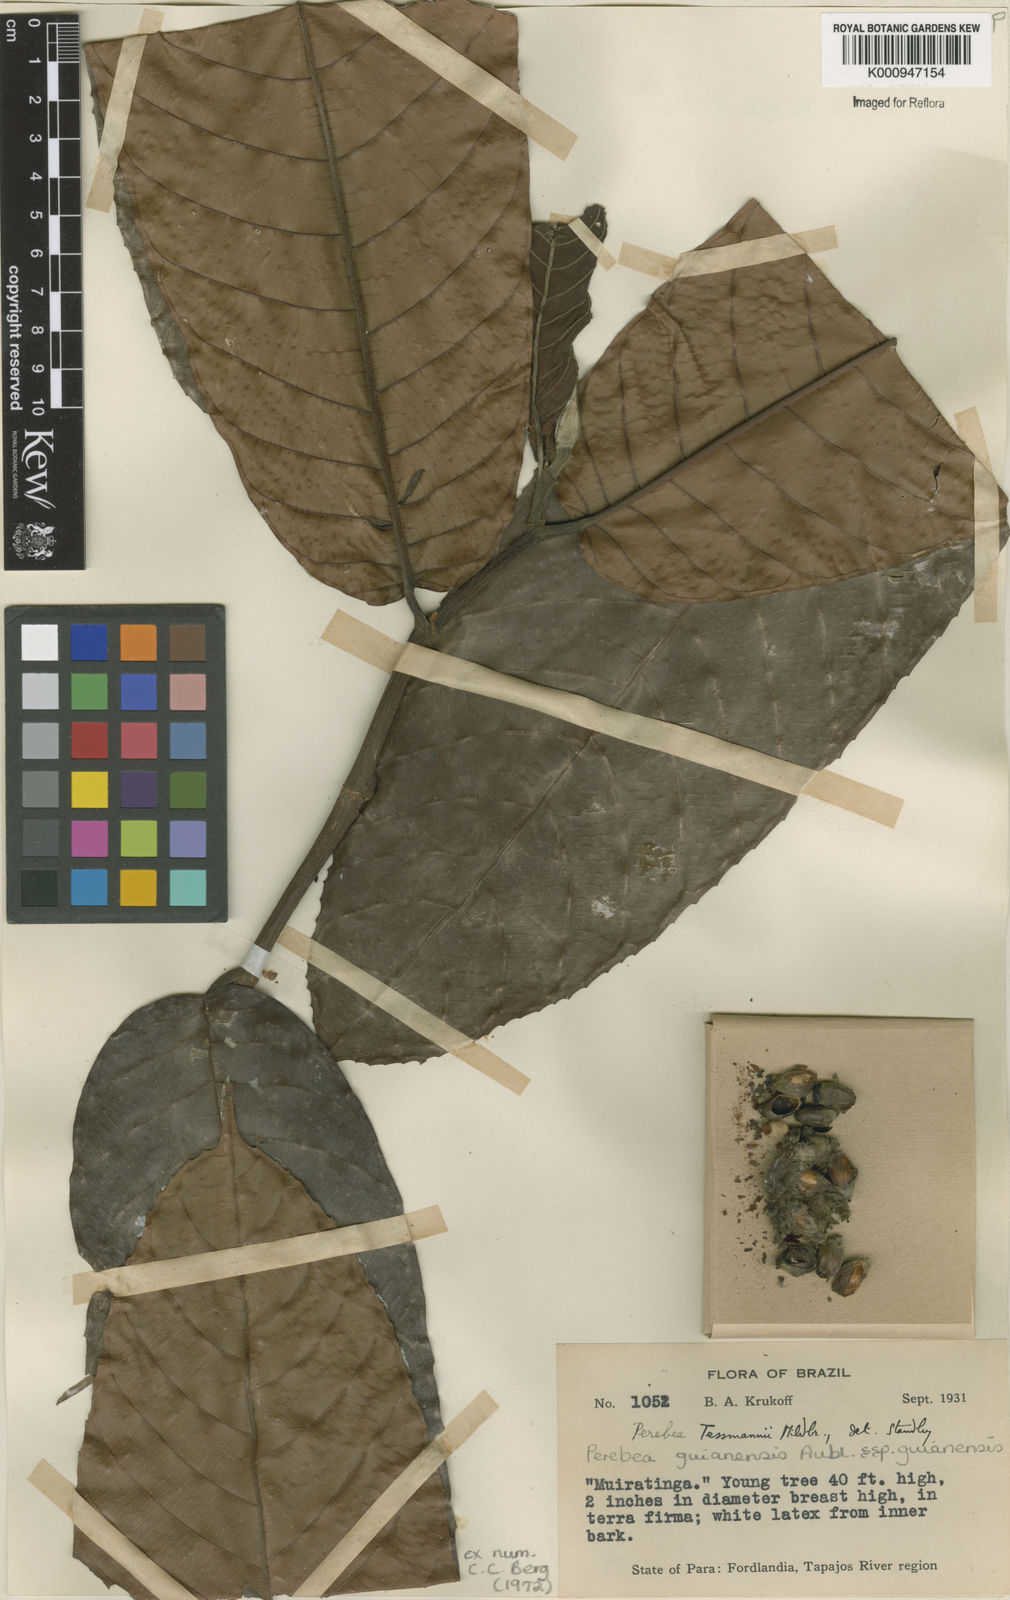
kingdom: Plantae
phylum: Tracheophyta
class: Magnoliopsida
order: Rosales
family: Moraceae
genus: Perebea
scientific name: Perebea guianensis
